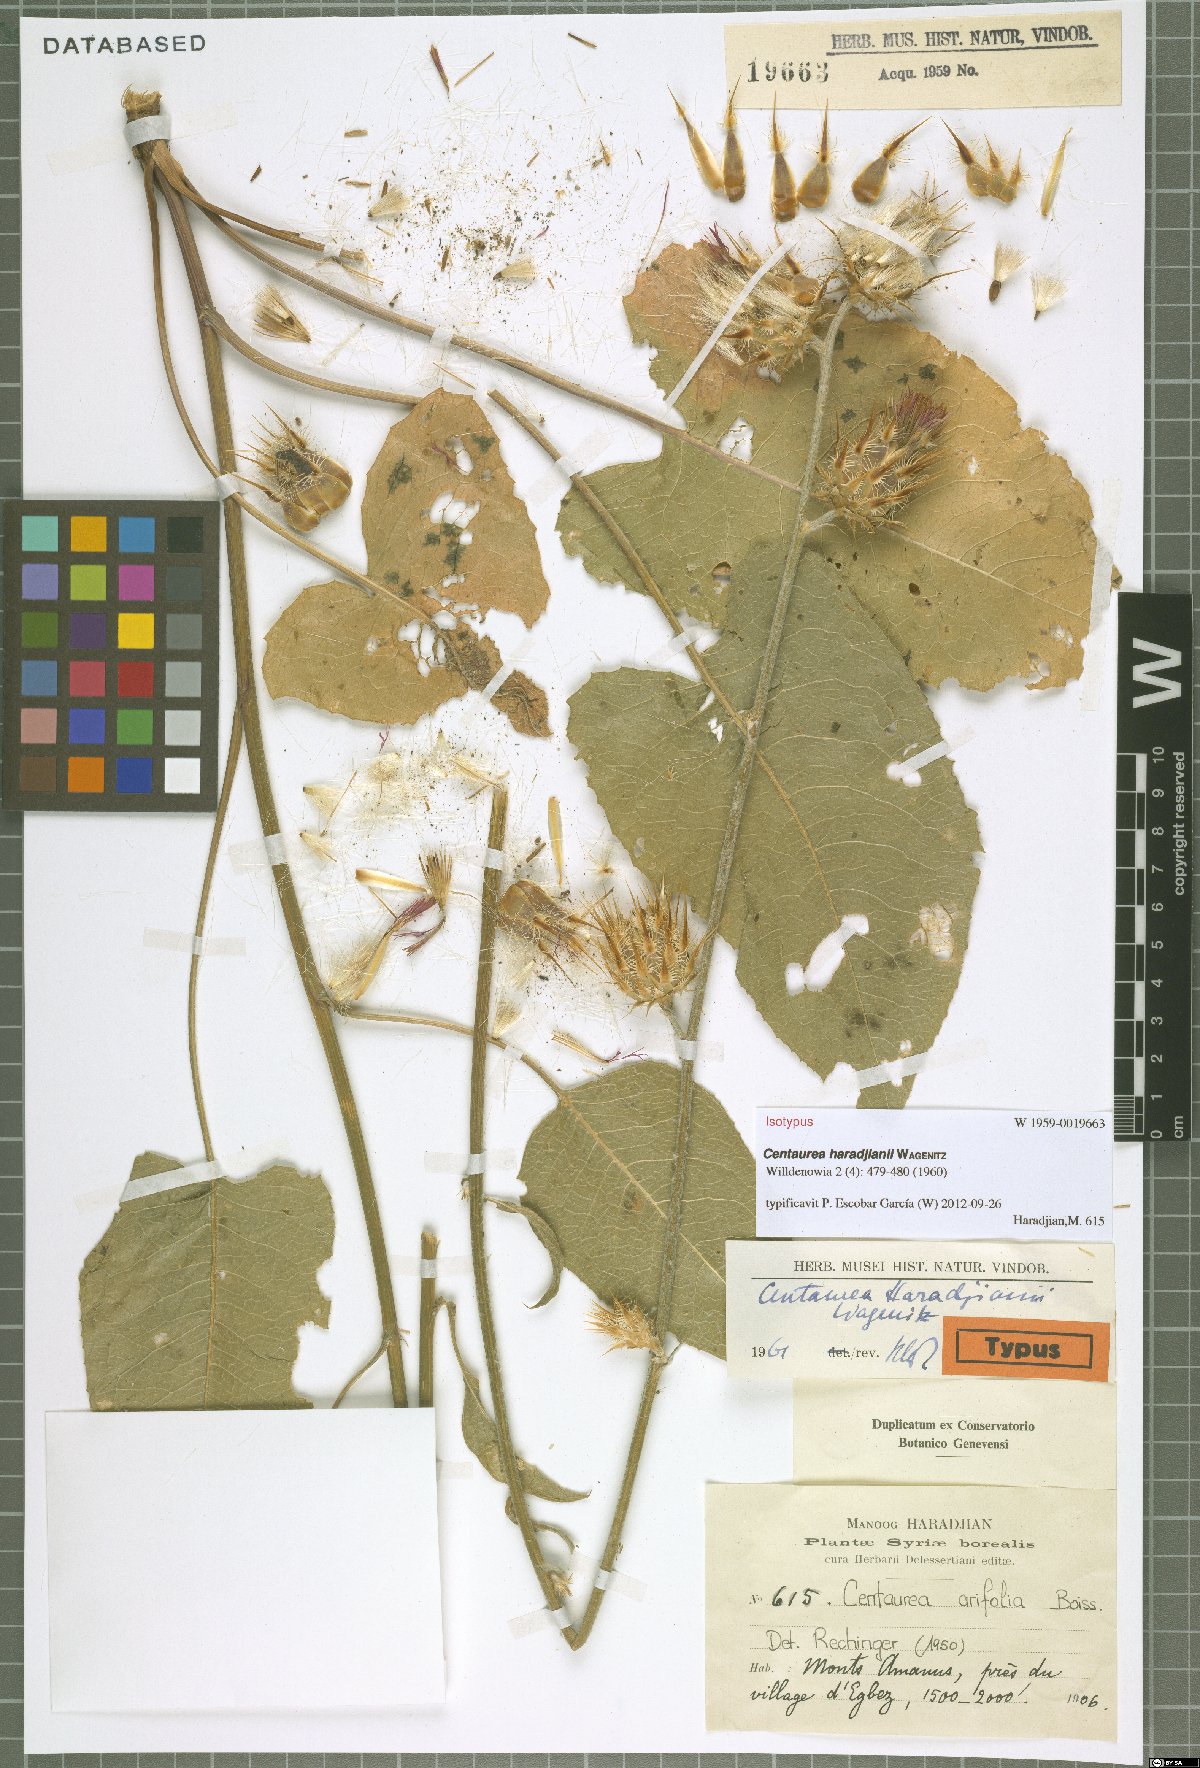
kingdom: Plantae
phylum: Tracheophyta
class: Magnoliopsida
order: Asterales
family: Asteraceae
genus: Centaurea
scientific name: Centaurea haradjianii
